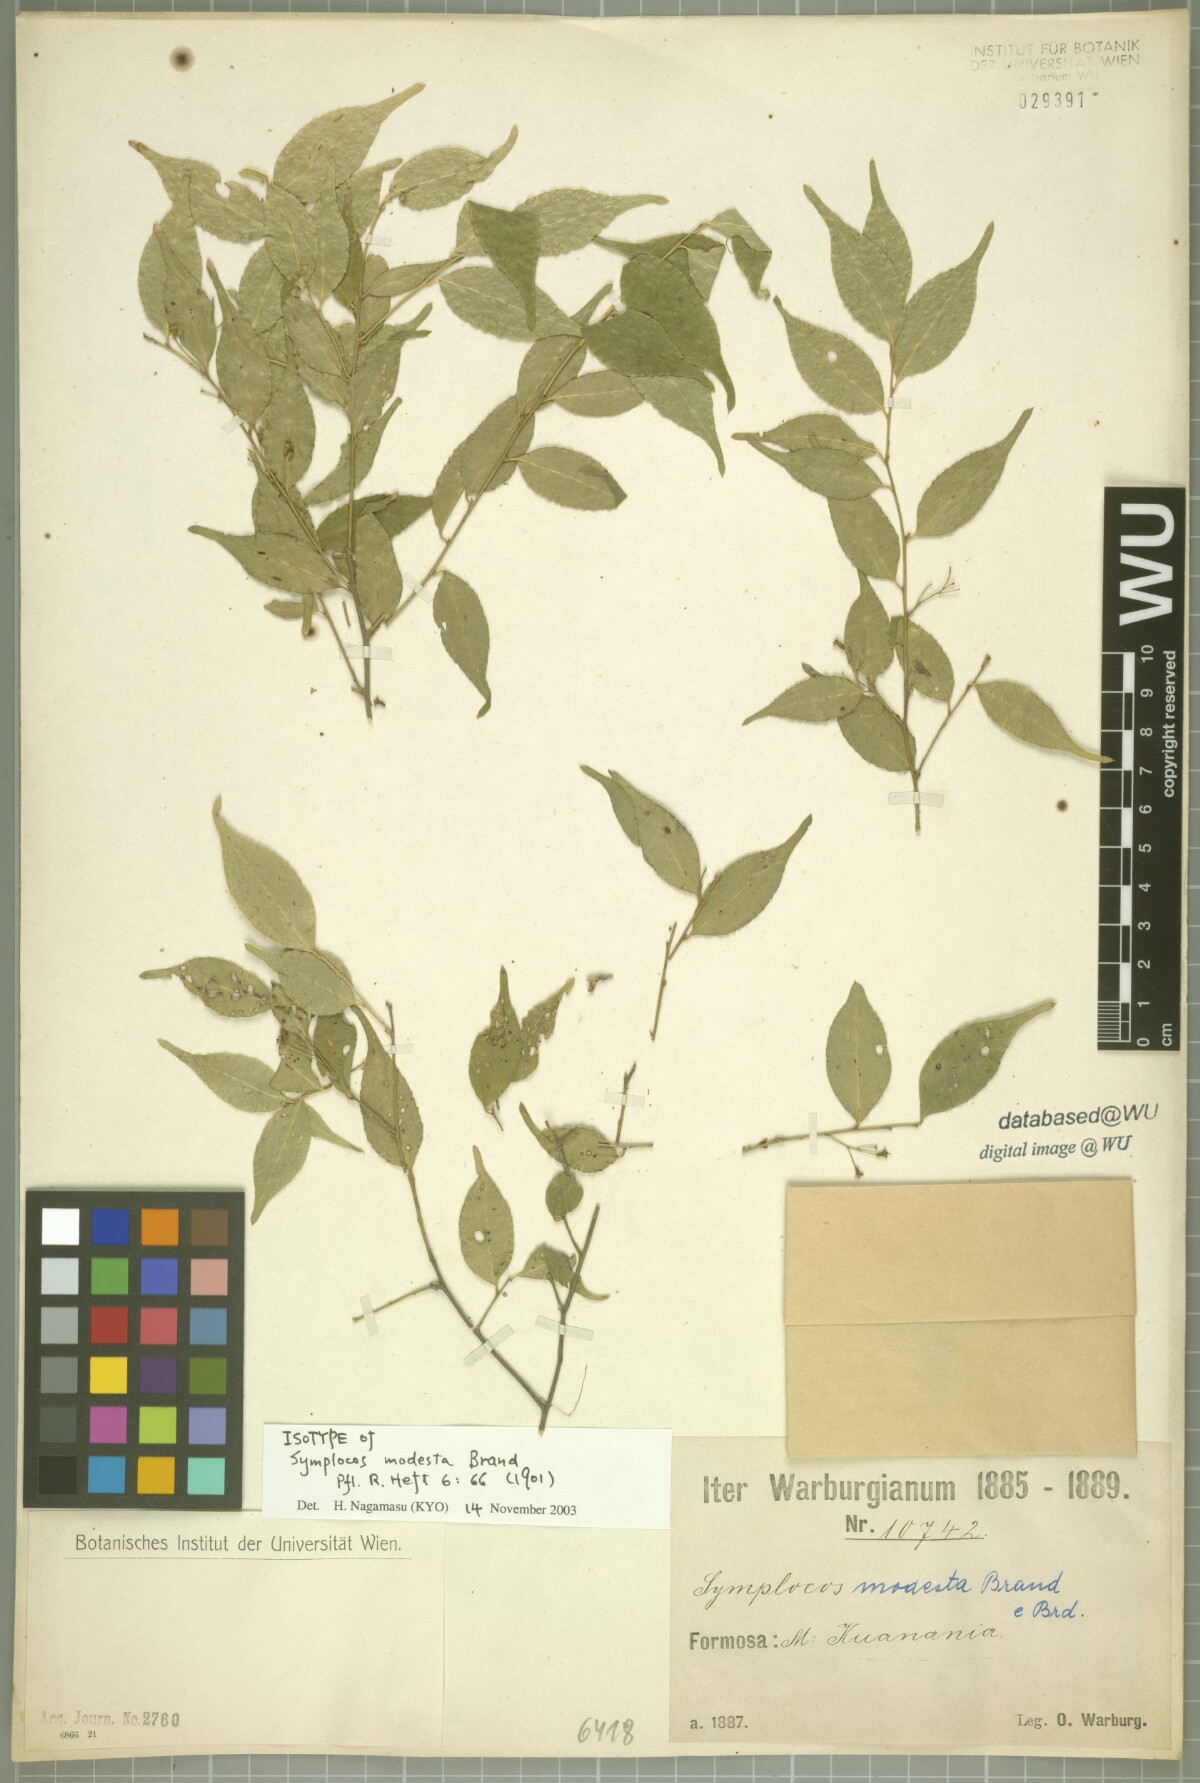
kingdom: Plantae
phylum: Tracheophyta
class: Magnoliopsida
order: Ericales
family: Symplocaceae
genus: Symplocos
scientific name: Symplocos sumuntia
